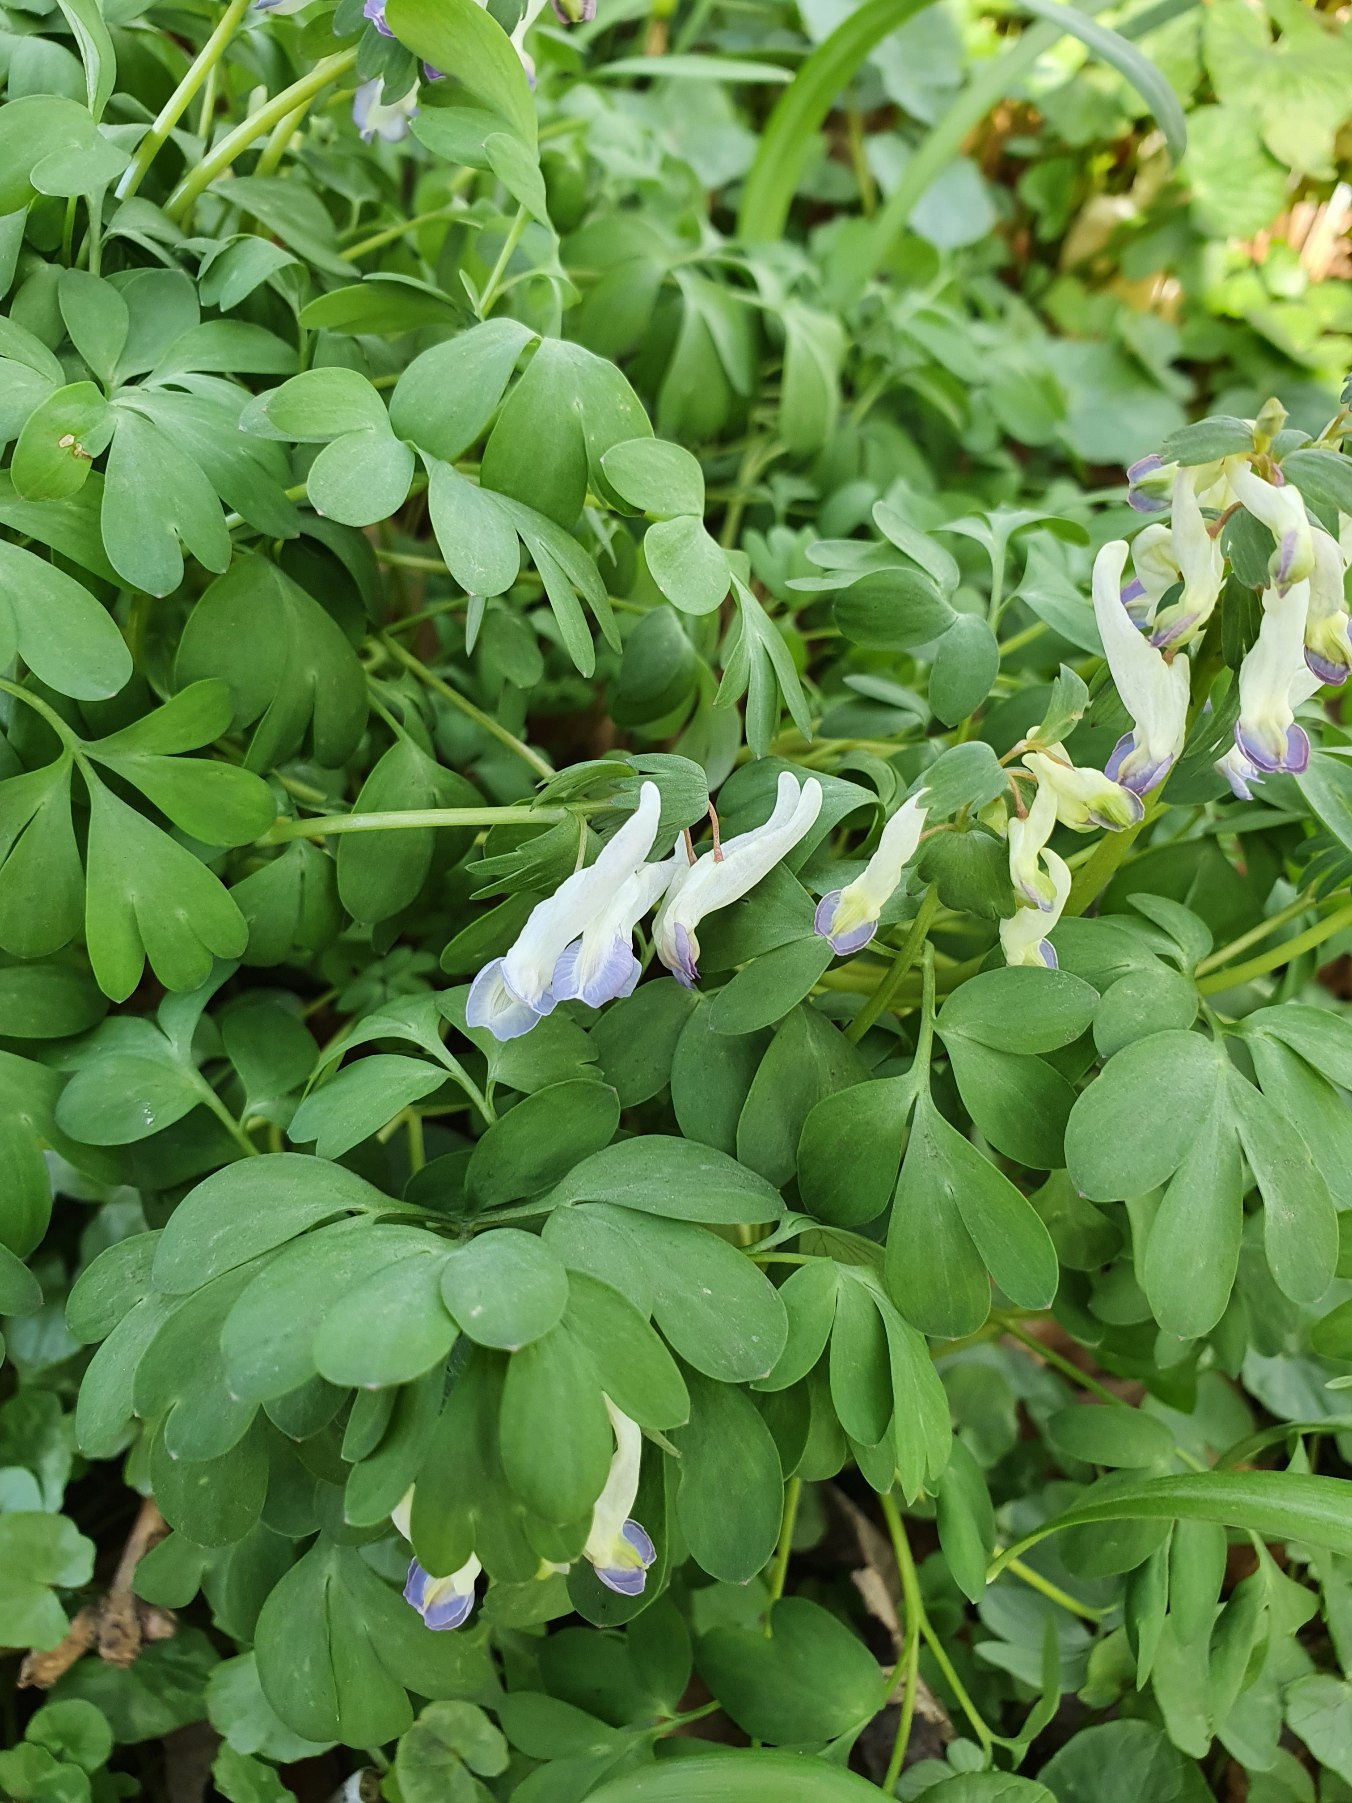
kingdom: Plantae
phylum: Tracheophyta
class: Magnoliopsida
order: Ranunculales
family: Papaveraceae
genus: Corydalis
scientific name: Corydalis solida
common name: Langstilket lærkespore
